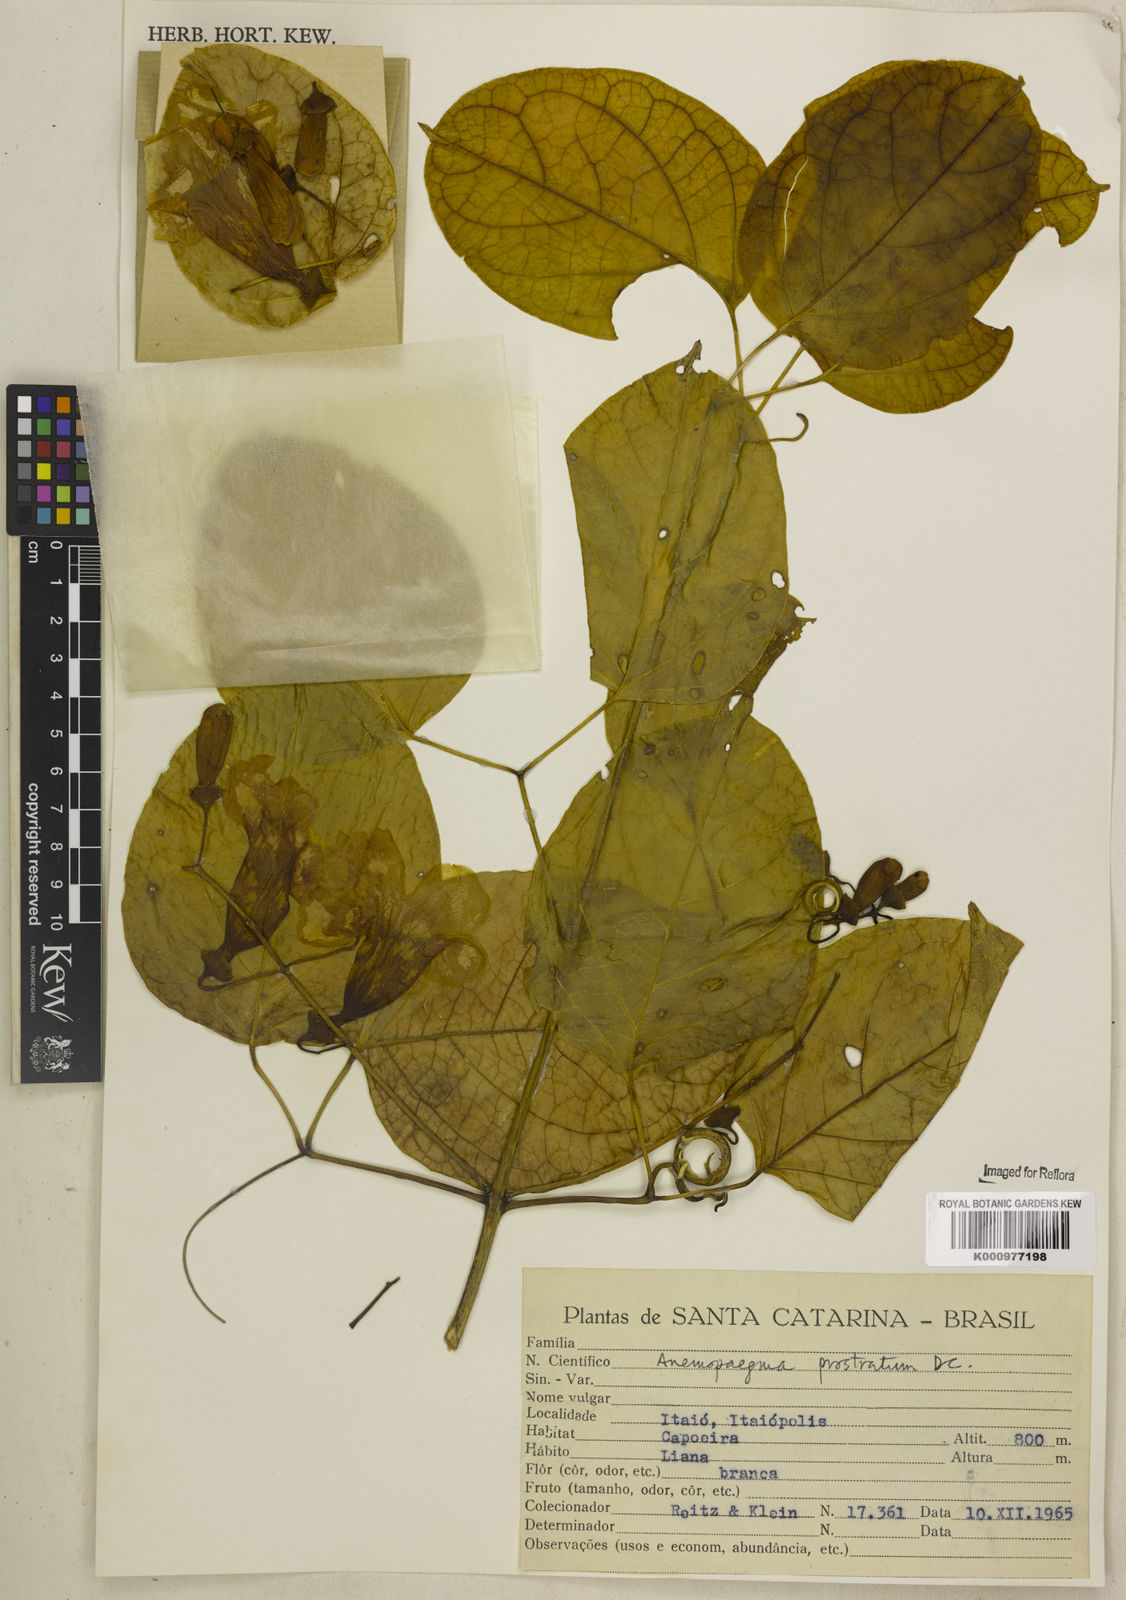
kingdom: Plantae
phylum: Tracheophyta
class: Magnoliopsida
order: Lamiales
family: Bignoniaceae
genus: Anemopaegma
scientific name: Anemopaegma prostratum
